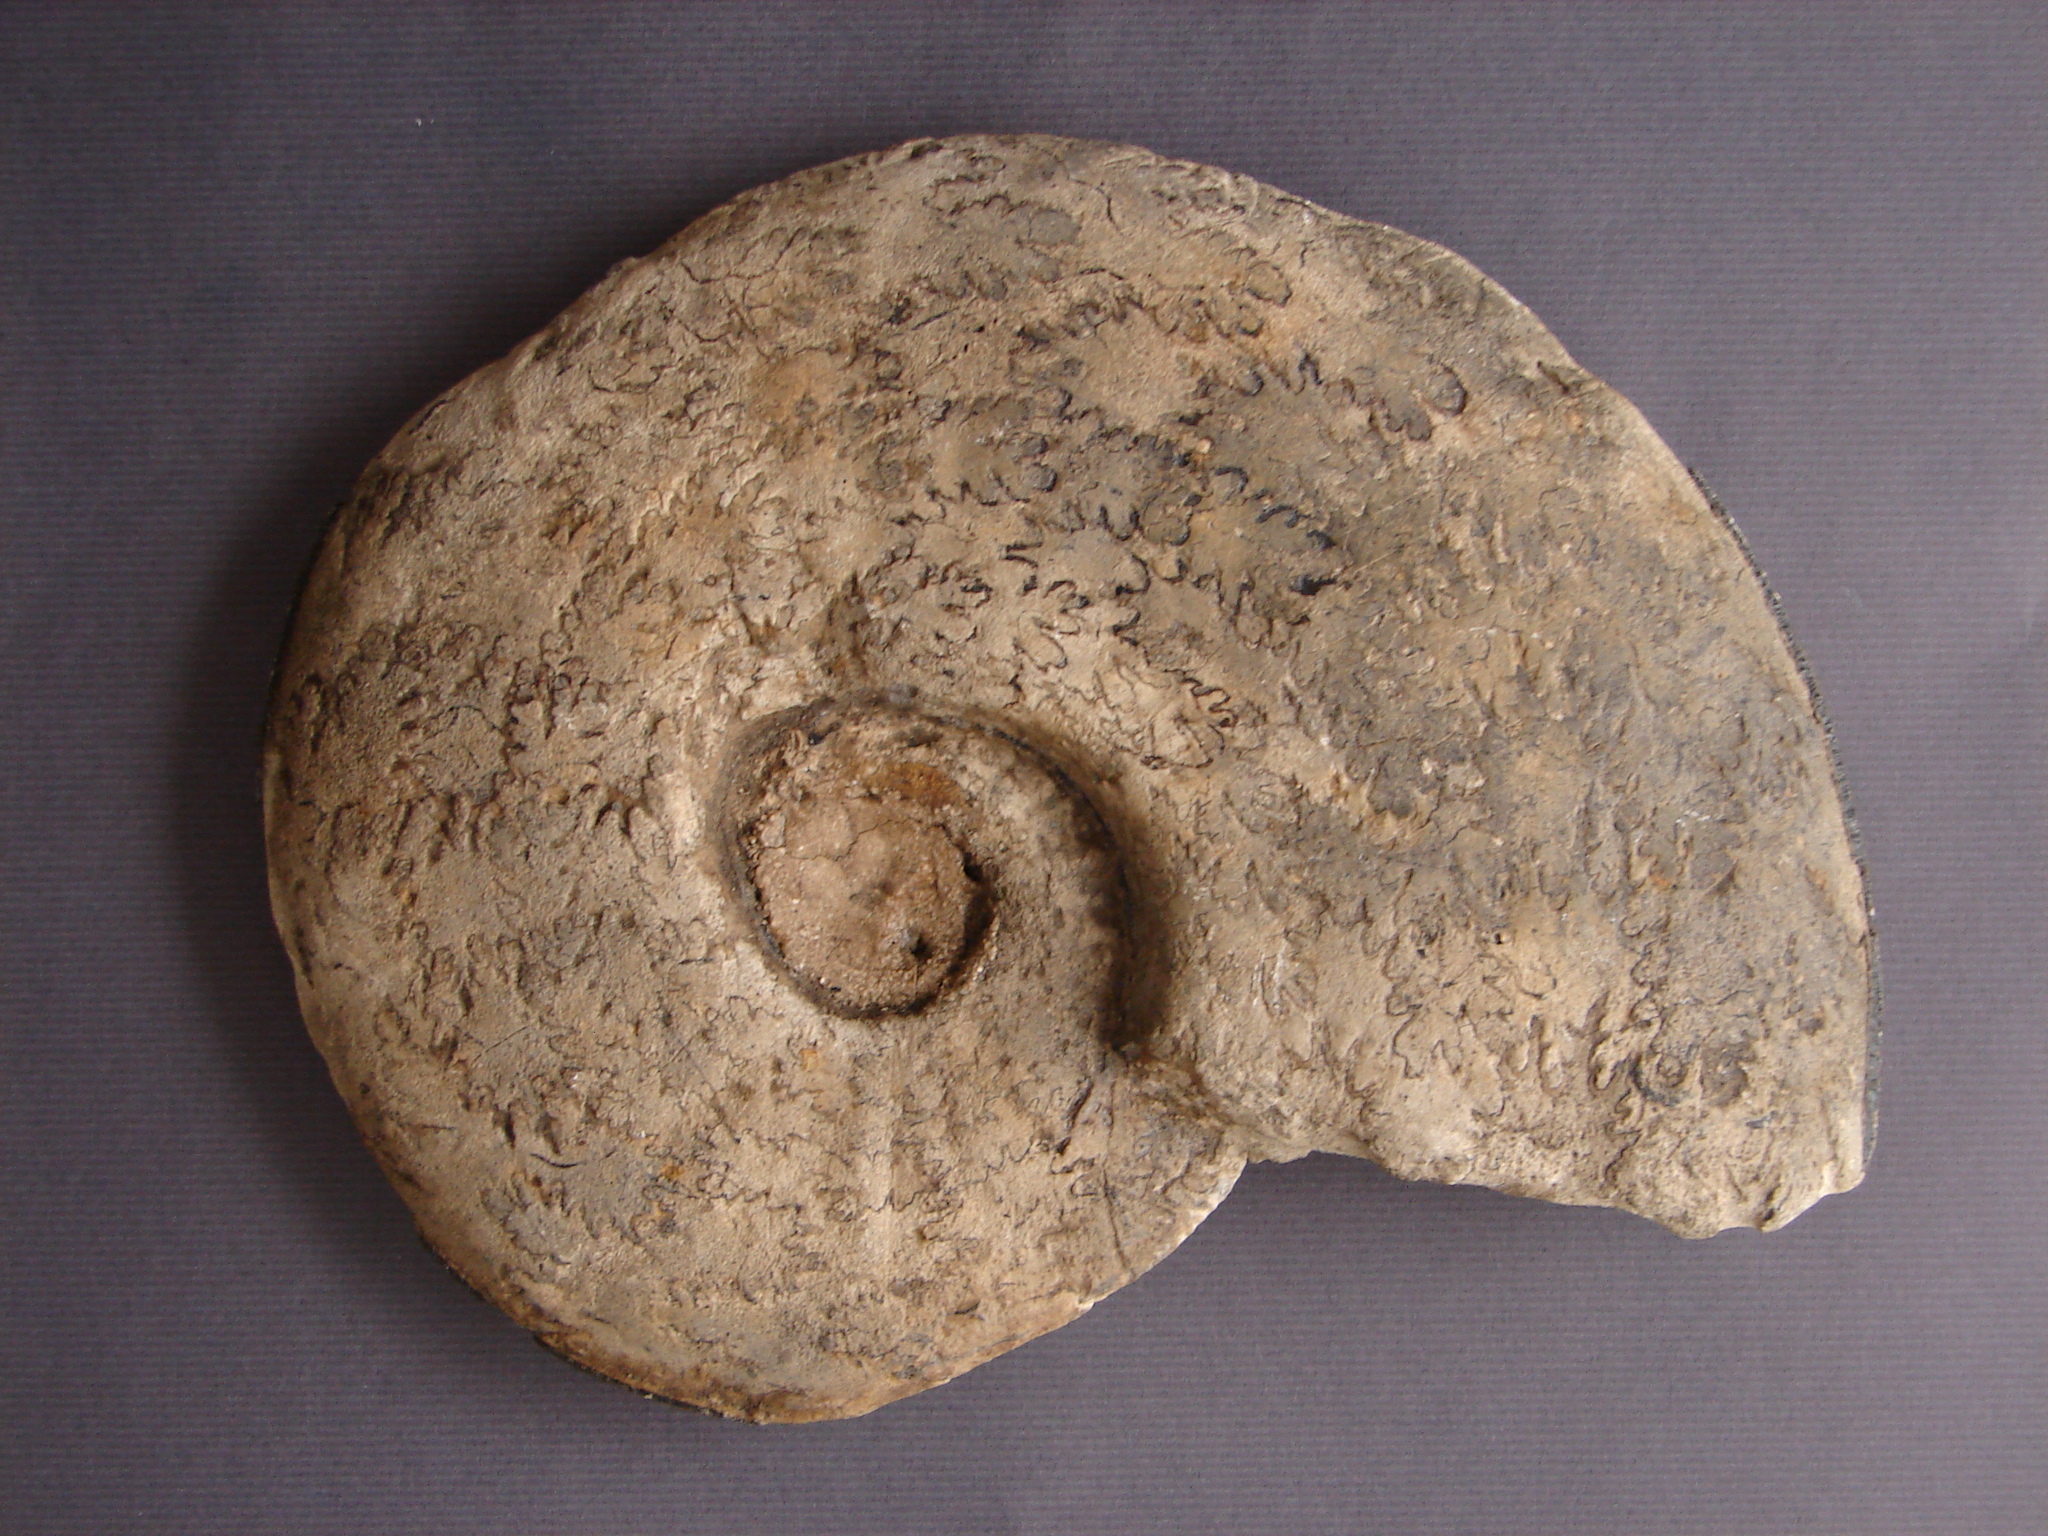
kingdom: Animalia
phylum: Mollusca
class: Cephalopoda
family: Neocomitidae
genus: Acanthodiscus
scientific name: Acanthodiscus radiatus
